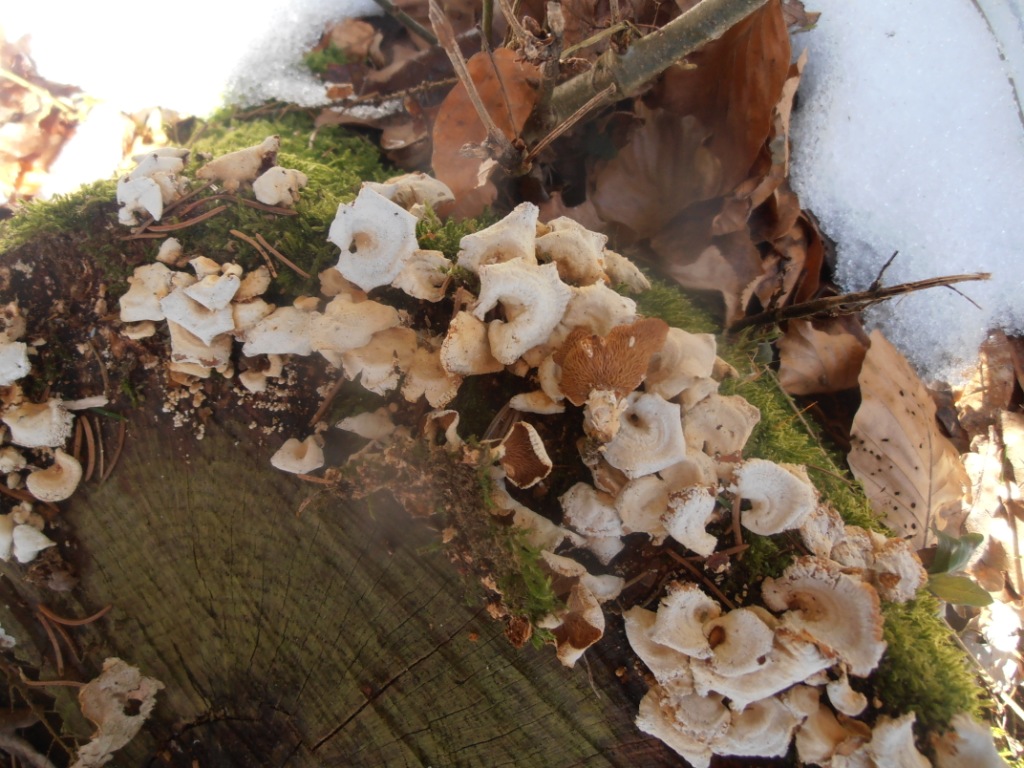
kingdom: Fungi
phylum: Basidiomycota
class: Agaricomycetes
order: Agaricales
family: Mycenaceae
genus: Panellus
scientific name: Panellus stipticus
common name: kliddet epaulethat
